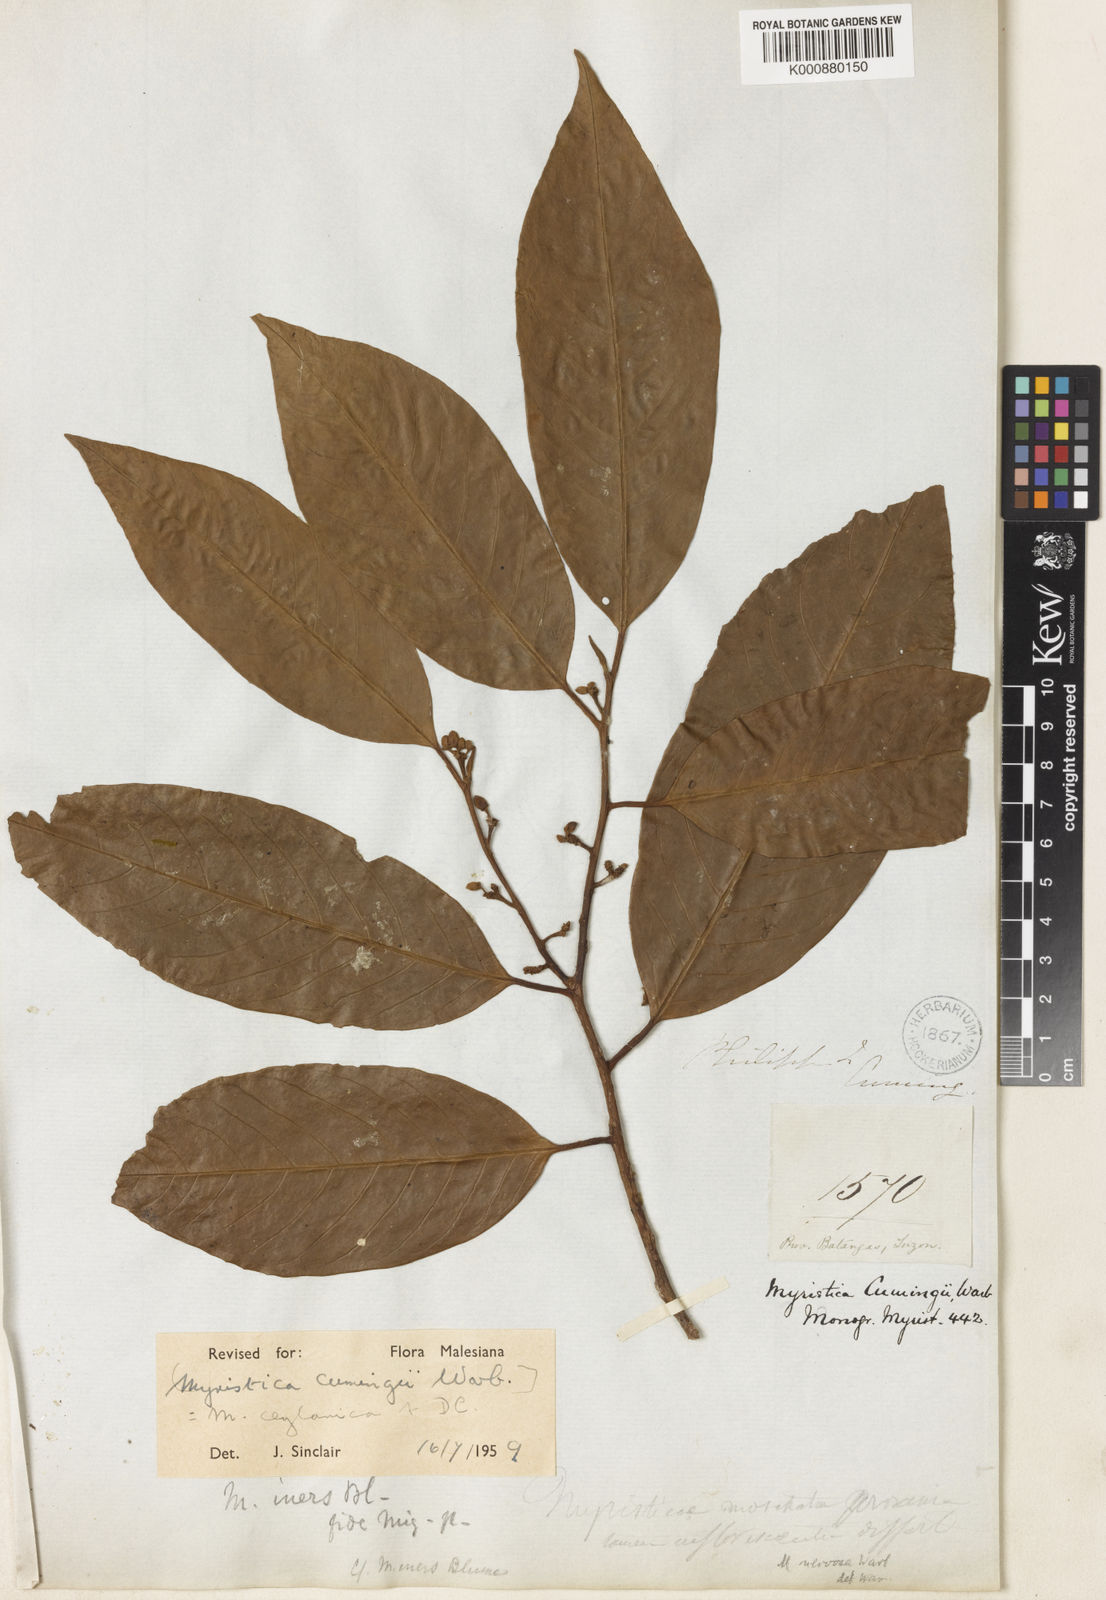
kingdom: Plantae
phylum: Tracheophyta
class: Magnoliopsida
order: Magnoliales
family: Myristicaceae
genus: Myristica
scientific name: Myristica ceylanica
